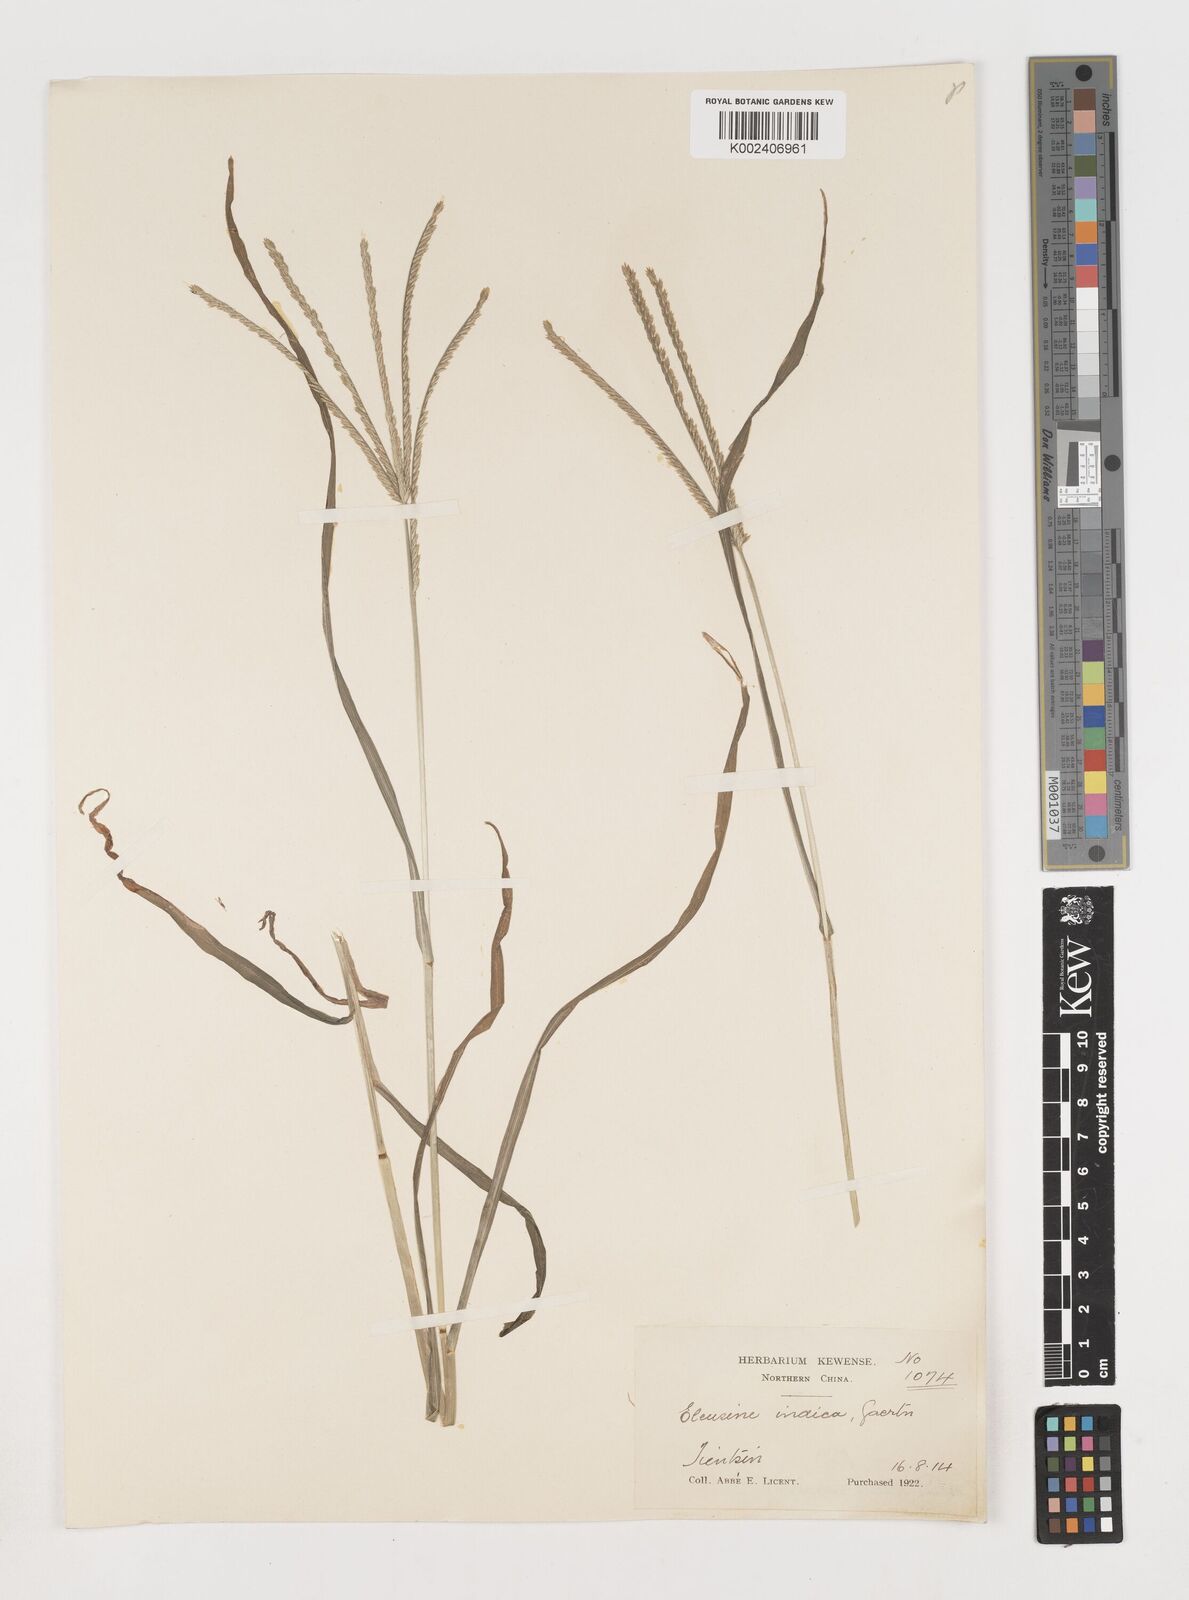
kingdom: Plantae
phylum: Tracheophyta
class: Liliopsida
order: Poales
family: Poaceae
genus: Eleusine
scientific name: Eleusine indica
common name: Yard-grass
